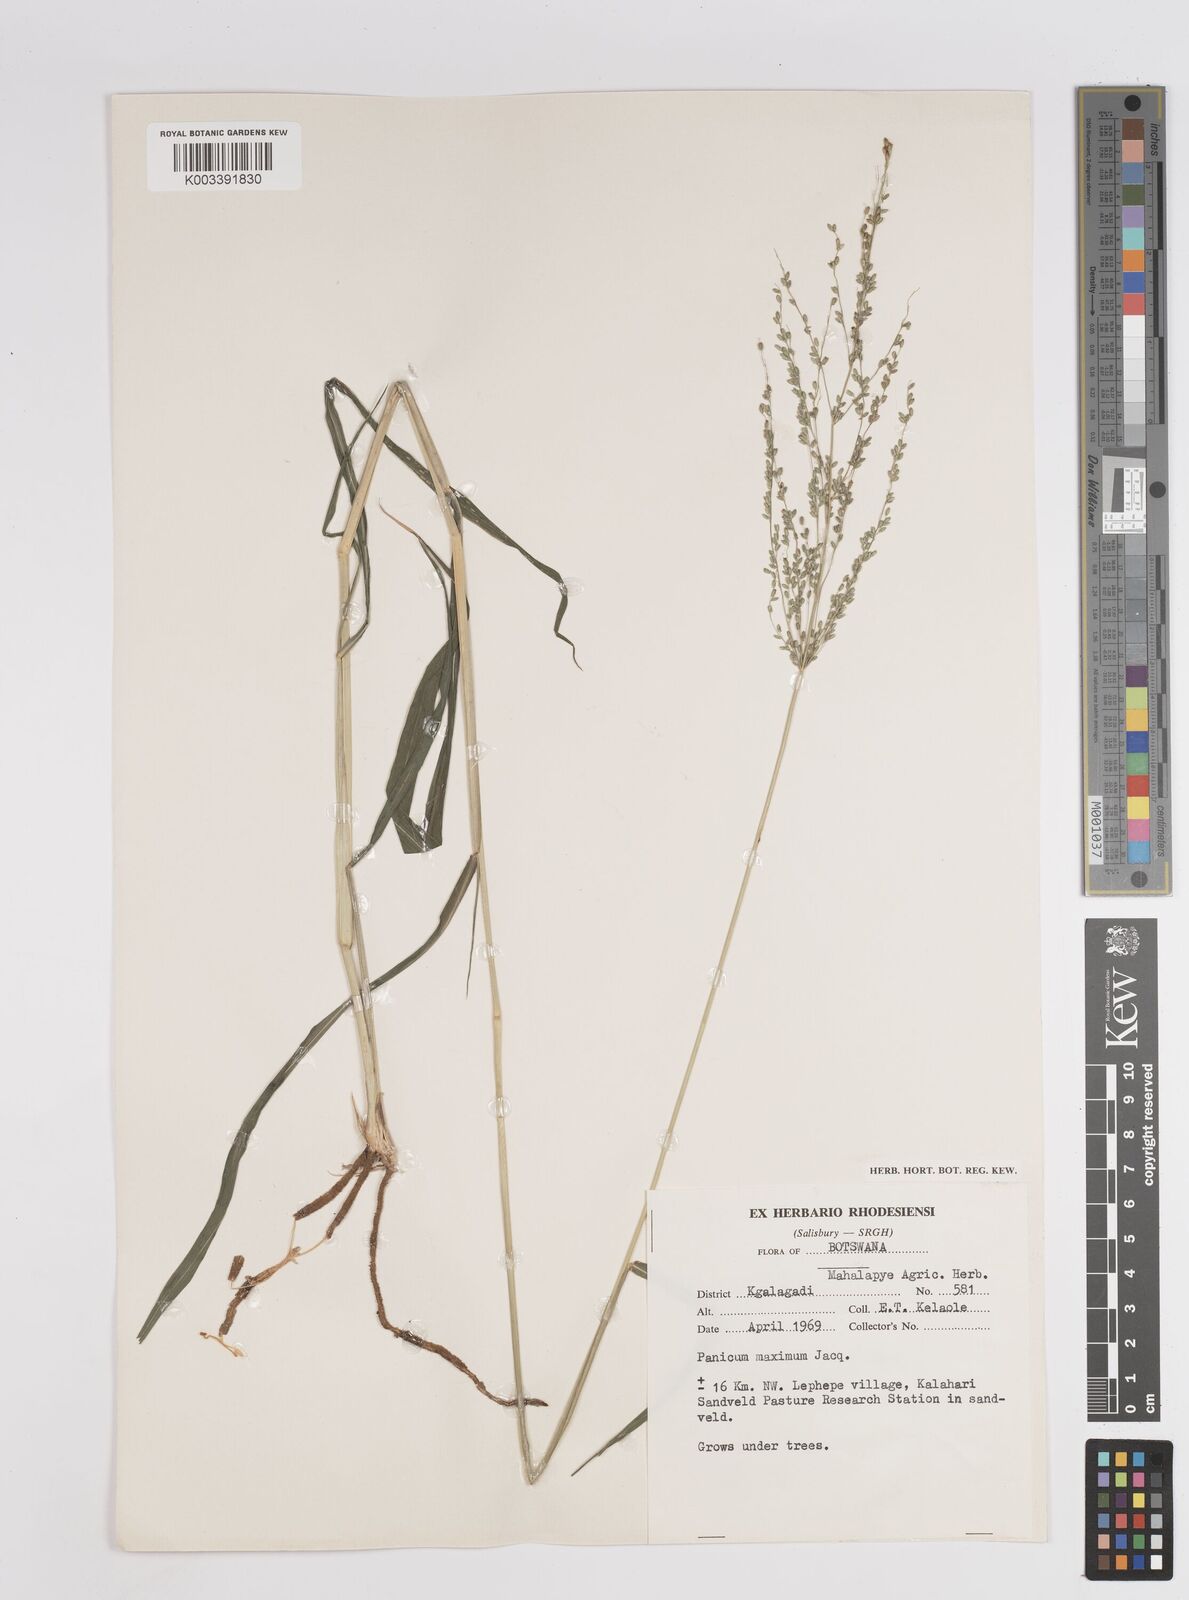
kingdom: Plantae
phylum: Tracheophyta
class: Liliopsida
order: Poales
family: Poaceae
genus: Megathyrsus
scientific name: Megathyrsus maximus
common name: Guineagrass
